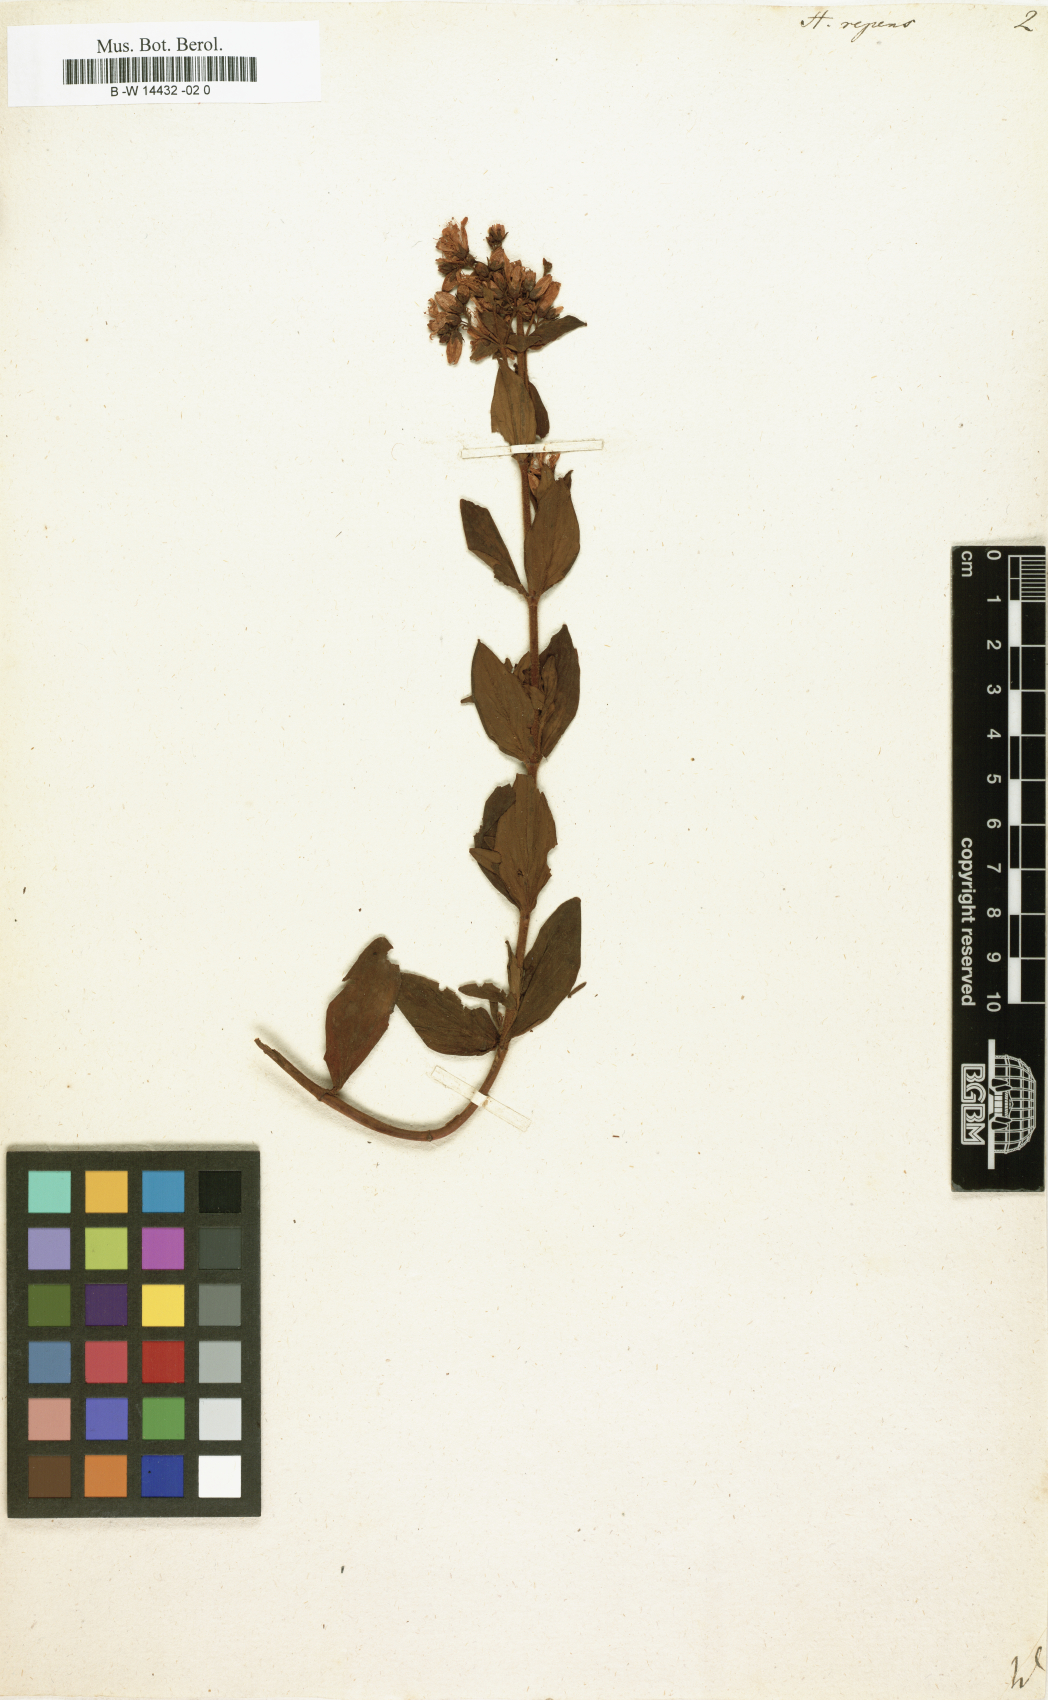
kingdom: Plantae
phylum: Tracheophyta
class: Magnoliopsida
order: Malpighiales
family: Hypericaceae
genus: Hypericum
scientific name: Hypericum tetrapterum
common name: Square-stalked st. john's-wort
